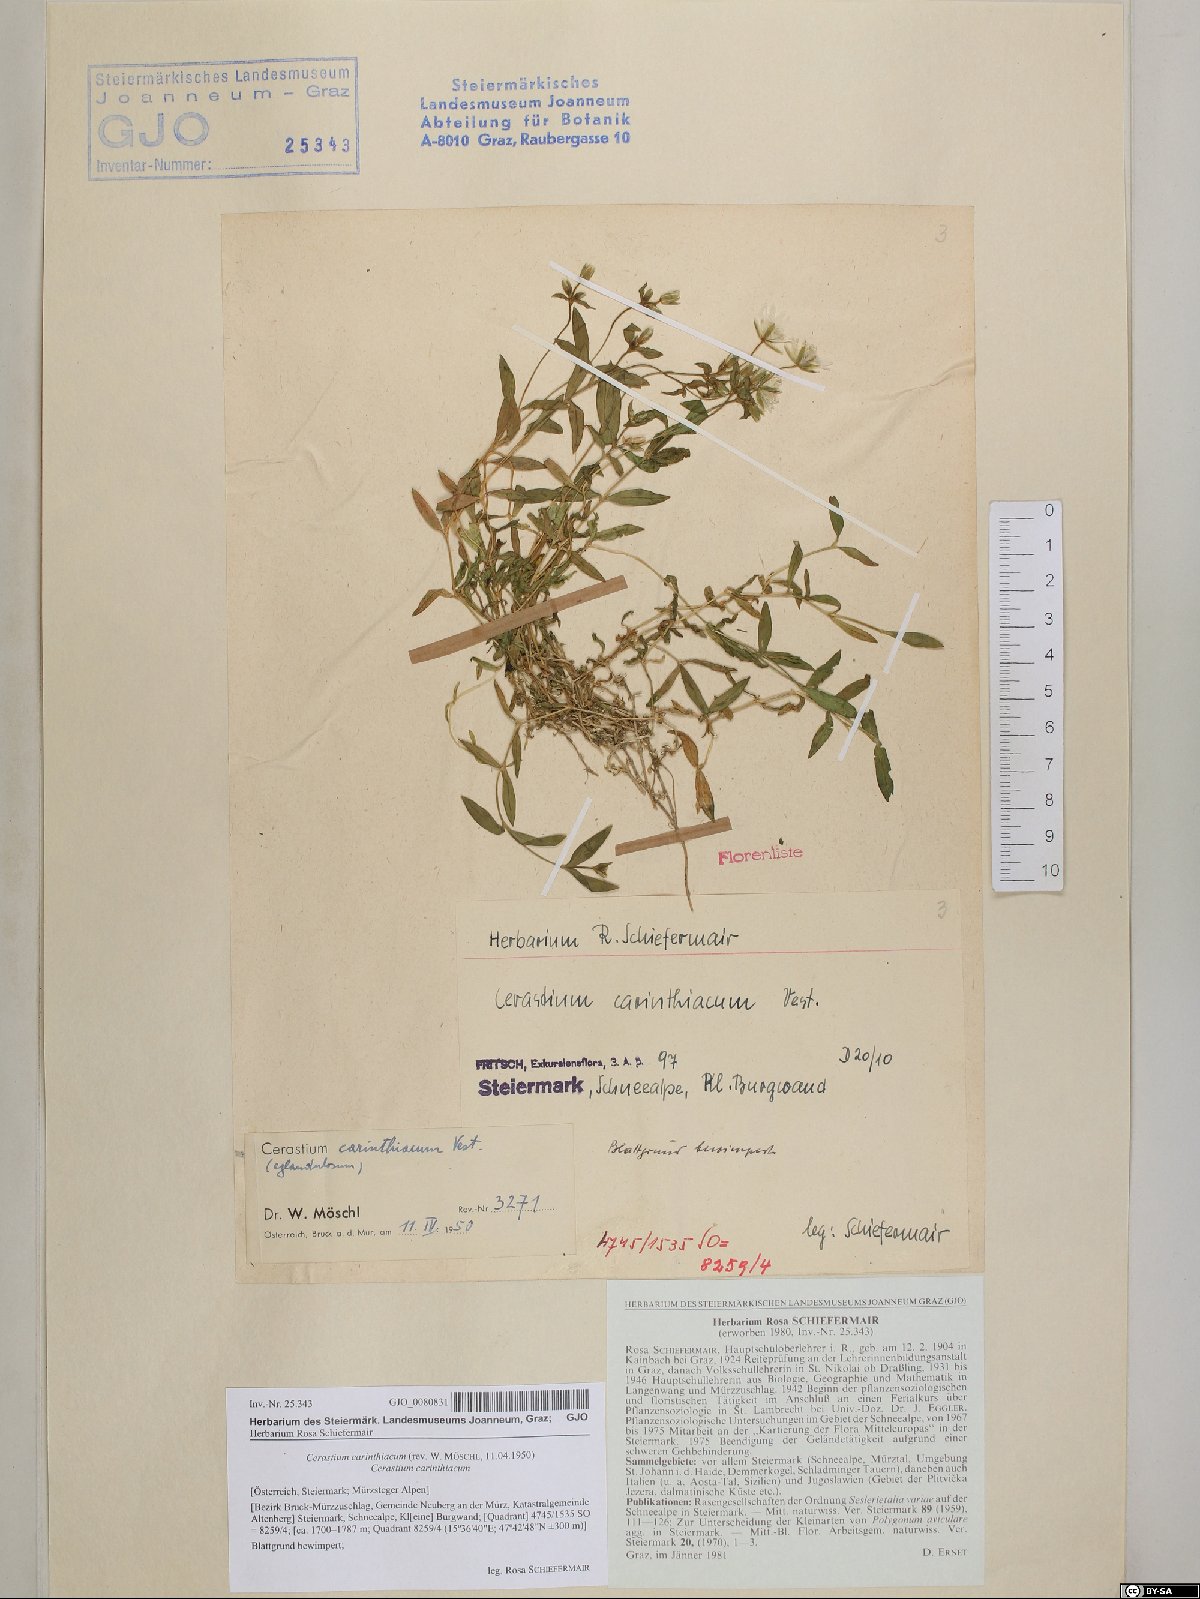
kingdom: Plantae
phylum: Tracheophyta
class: Magnoliopsida
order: Caryophyllales
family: Caryophyllaceae
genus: Cerastium
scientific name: Cerastium carinthiacum
